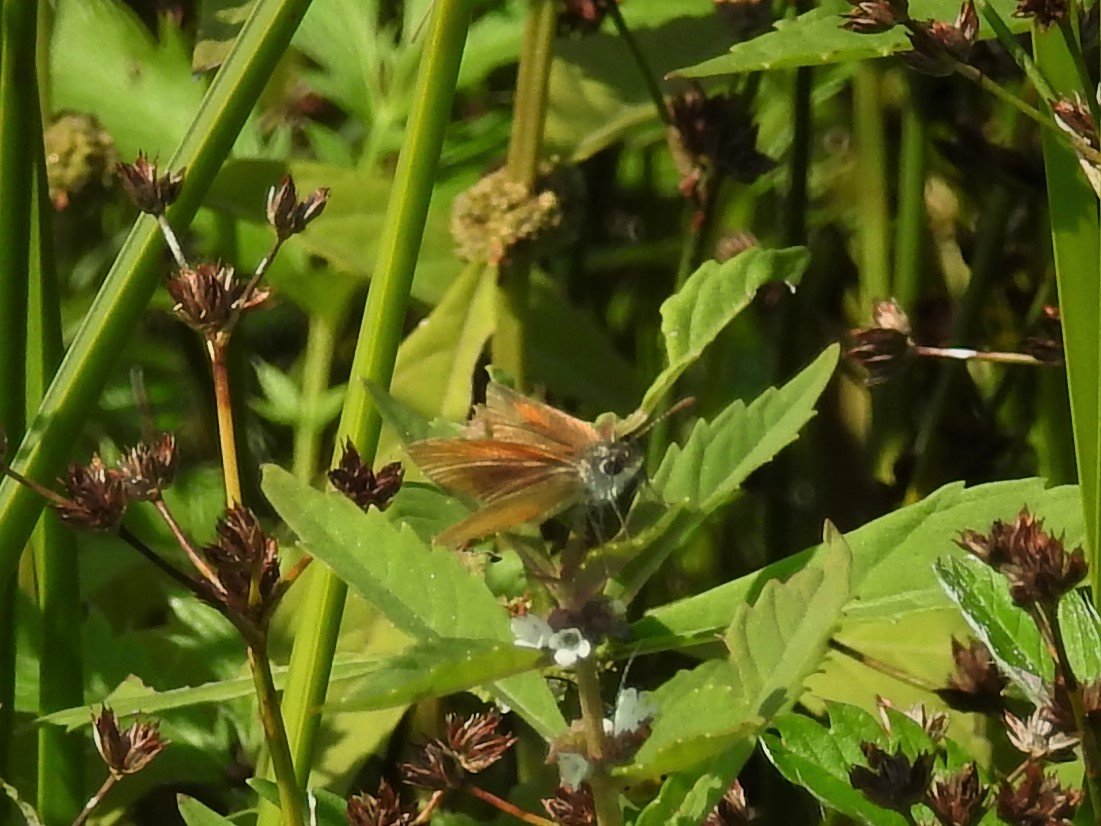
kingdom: Animalia
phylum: Arthropoda
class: Insecta
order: Lepidoptera
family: Hesperiidae
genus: Ancyloxypha
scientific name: Ancyloxypha numitor
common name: Least Skipper
